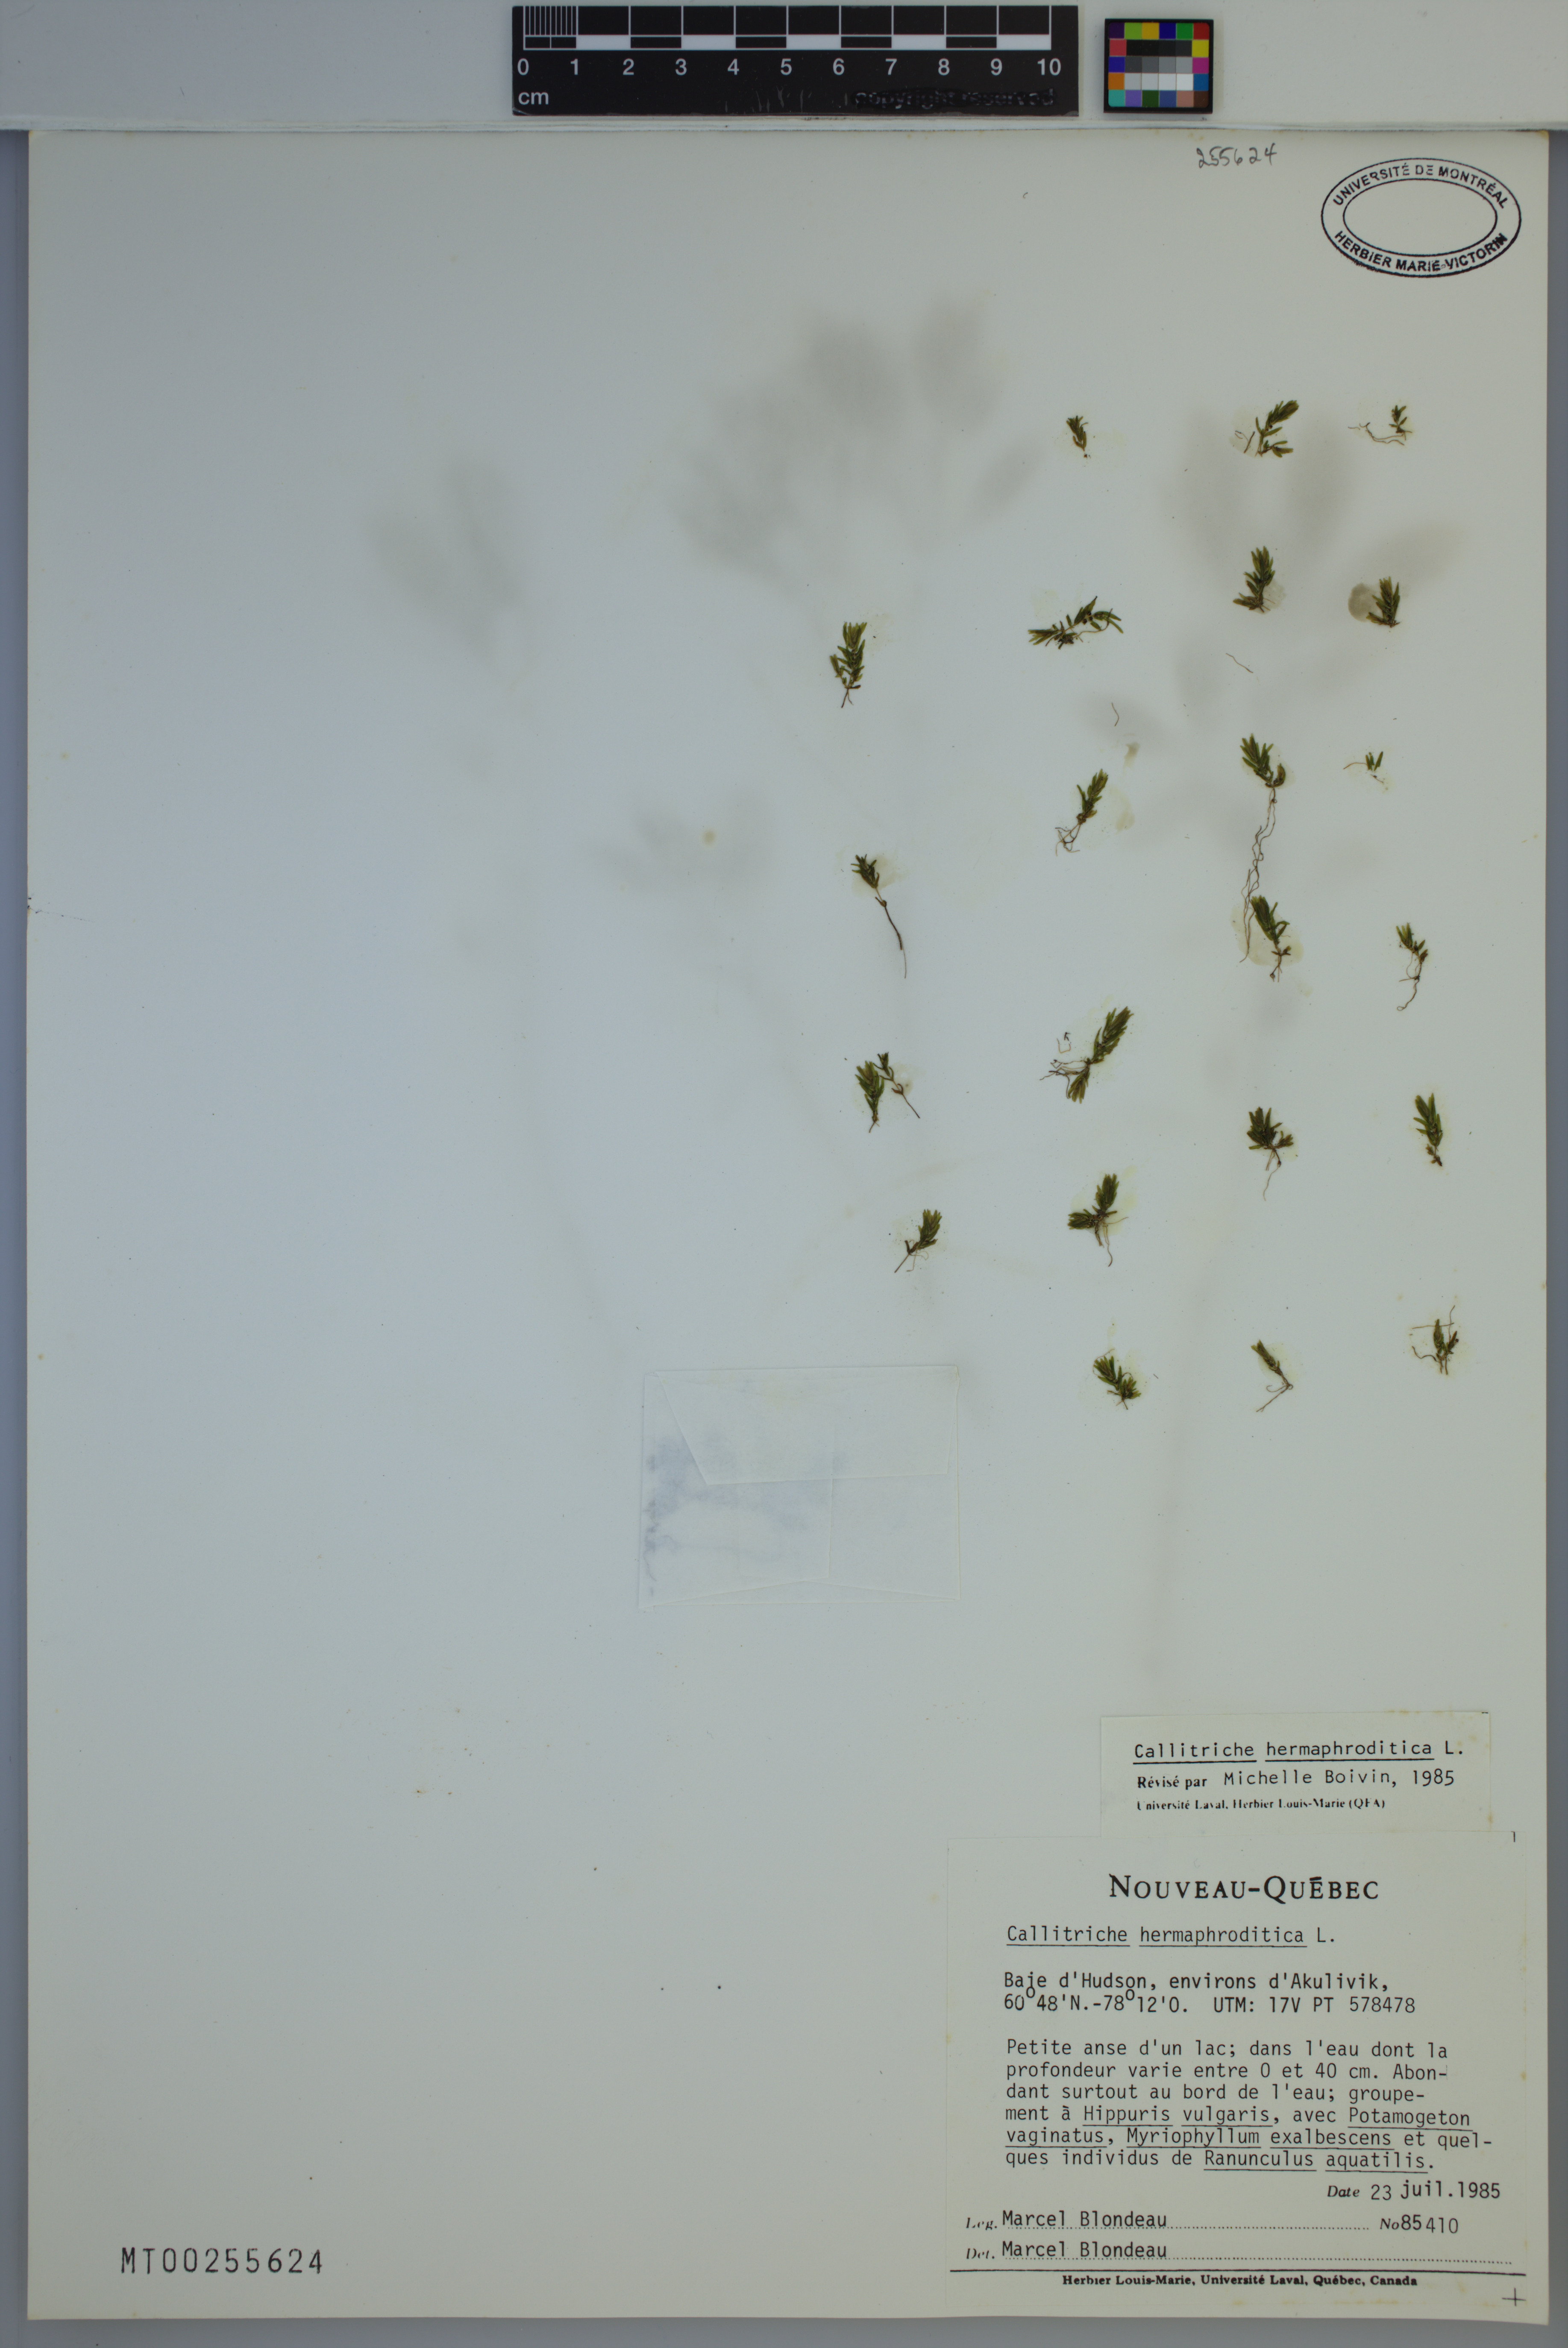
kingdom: Plantae
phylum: Tracheophyta
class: Magnoliopsida
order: Lamiales
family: Plantaginaceae
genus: Callitriche
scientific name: Callitriche hermaphroditica
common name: Autumnal water-starwort
